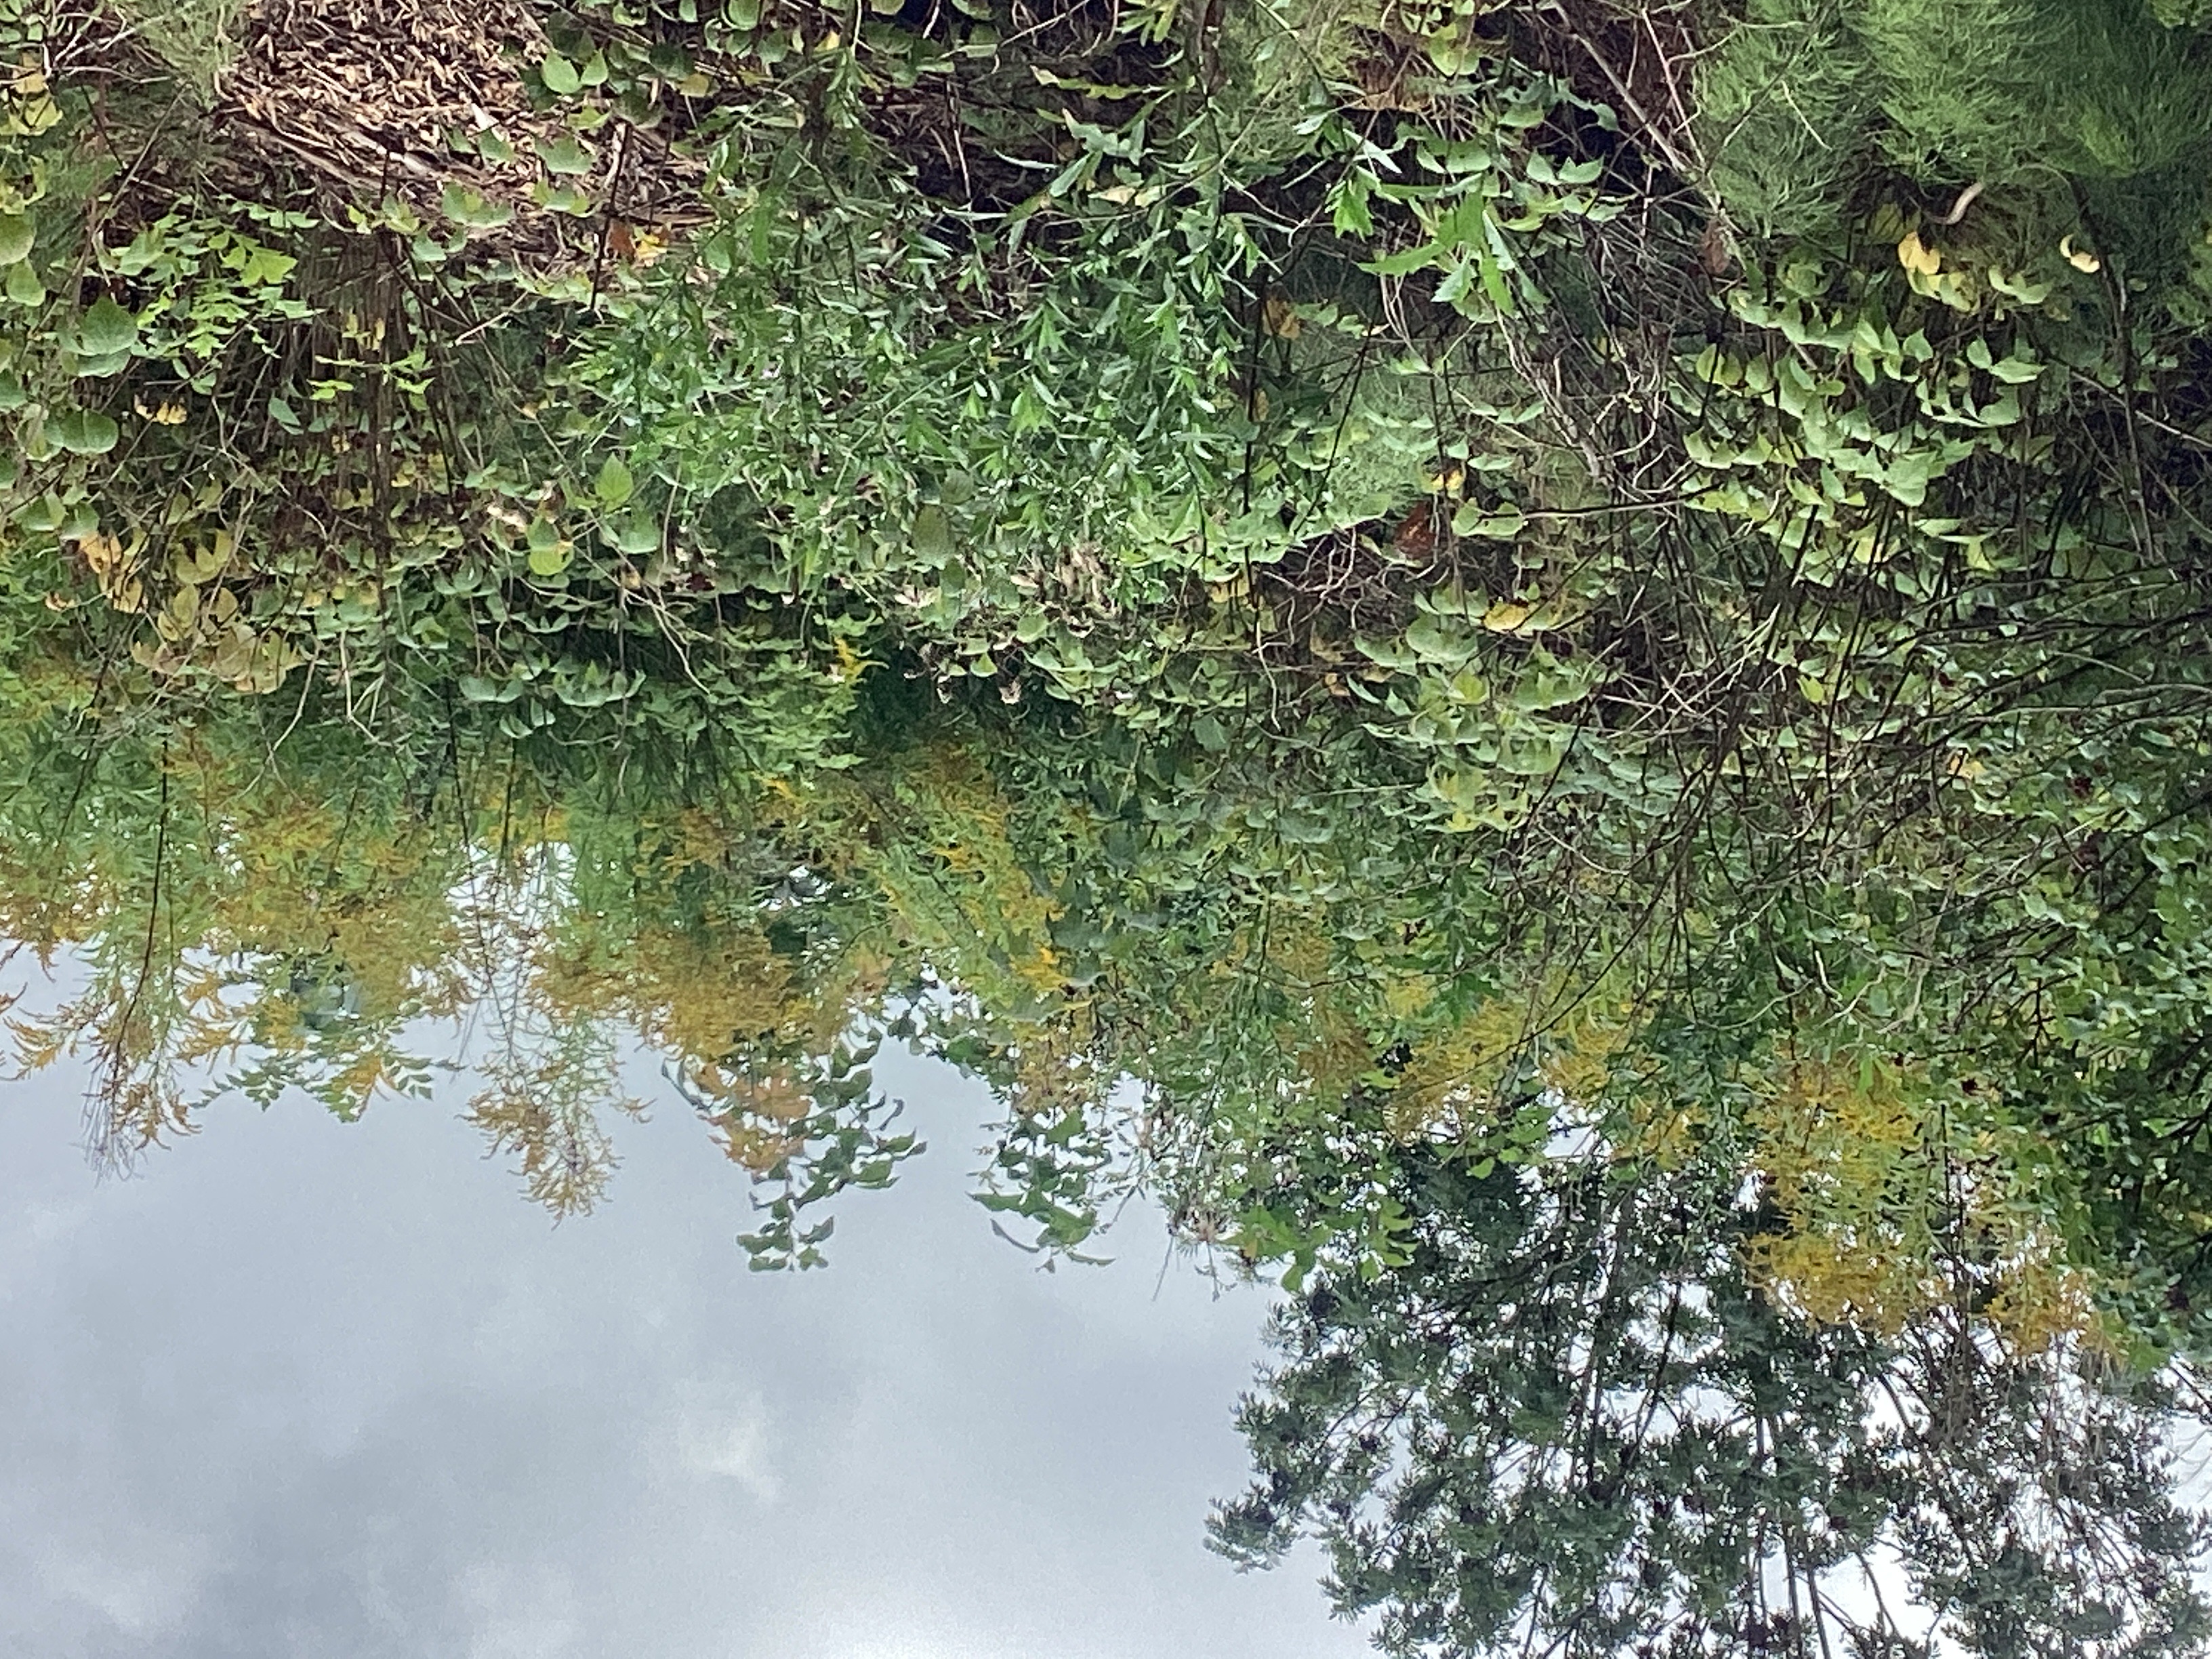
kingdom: Plantae
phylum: Tracheophyta
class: Magnoliopsida
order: Asterales
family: Asteraceae
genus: Solidago
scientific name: Solidago canadensis
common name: kanadagullris
